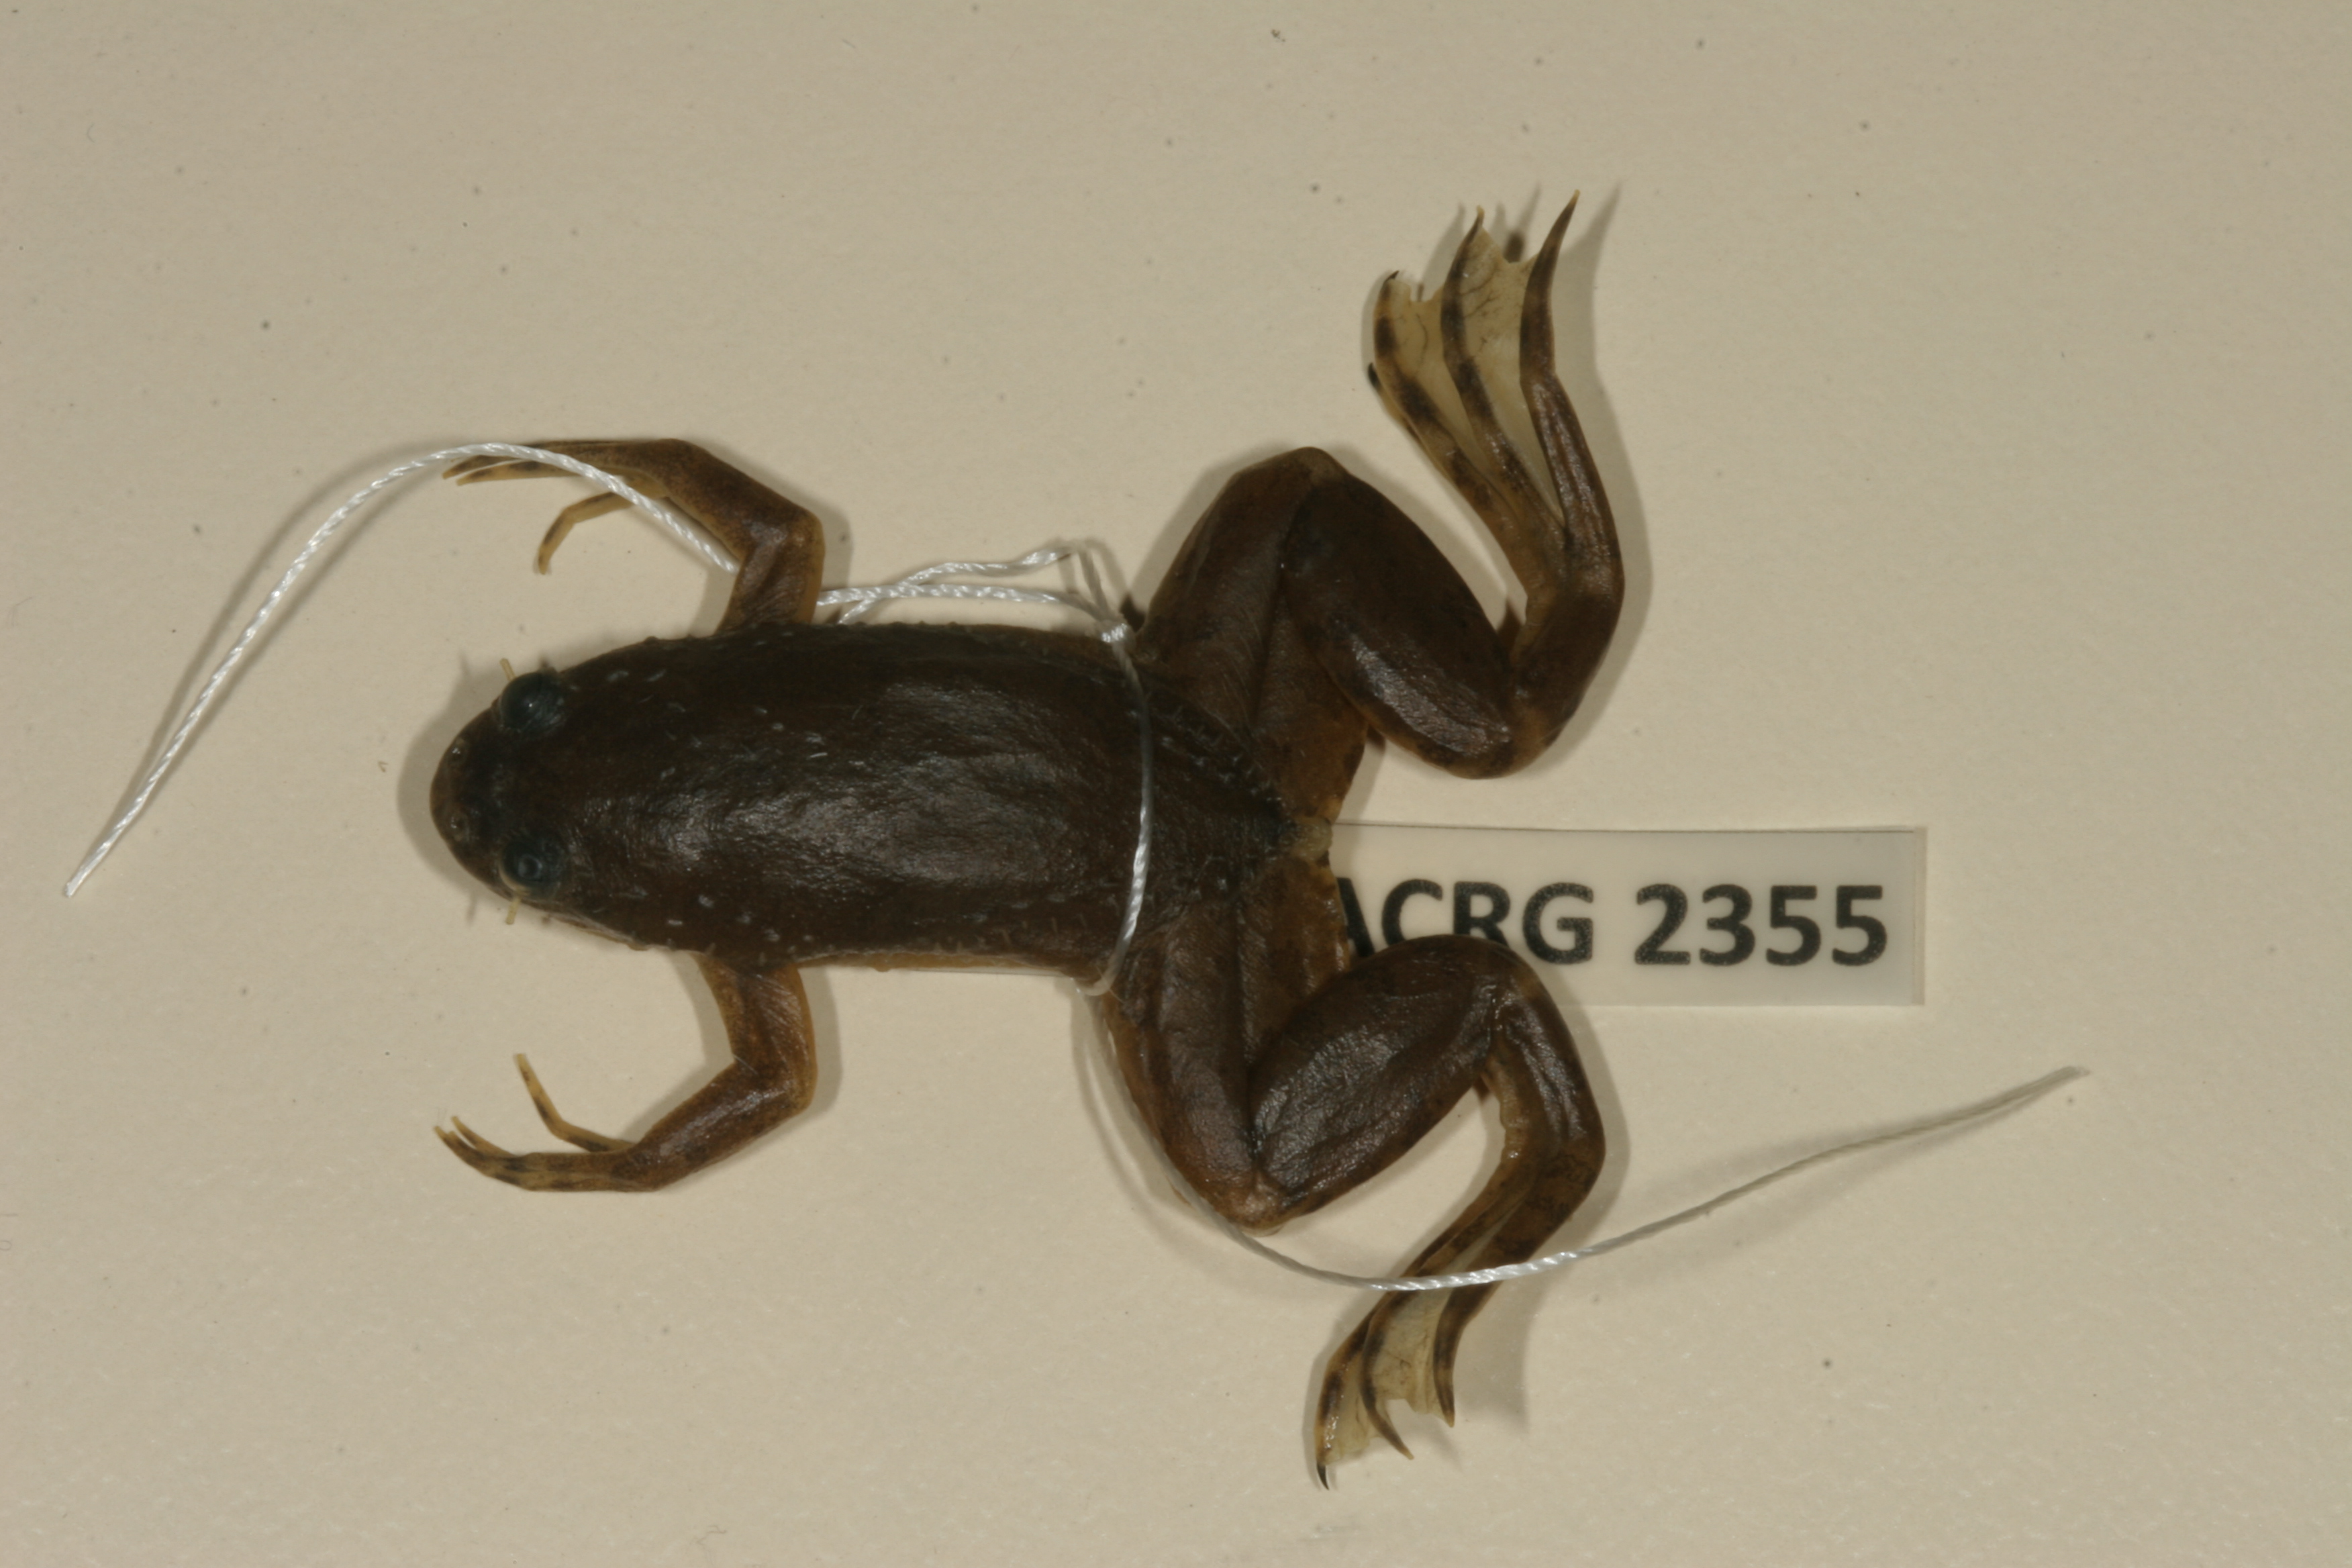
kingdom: Animalia
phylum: Chordata
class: Amphibia
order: Anura
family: Pipidae
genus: Xenopus
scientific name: Xenopus muelleri
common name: Muller's clawed frog
